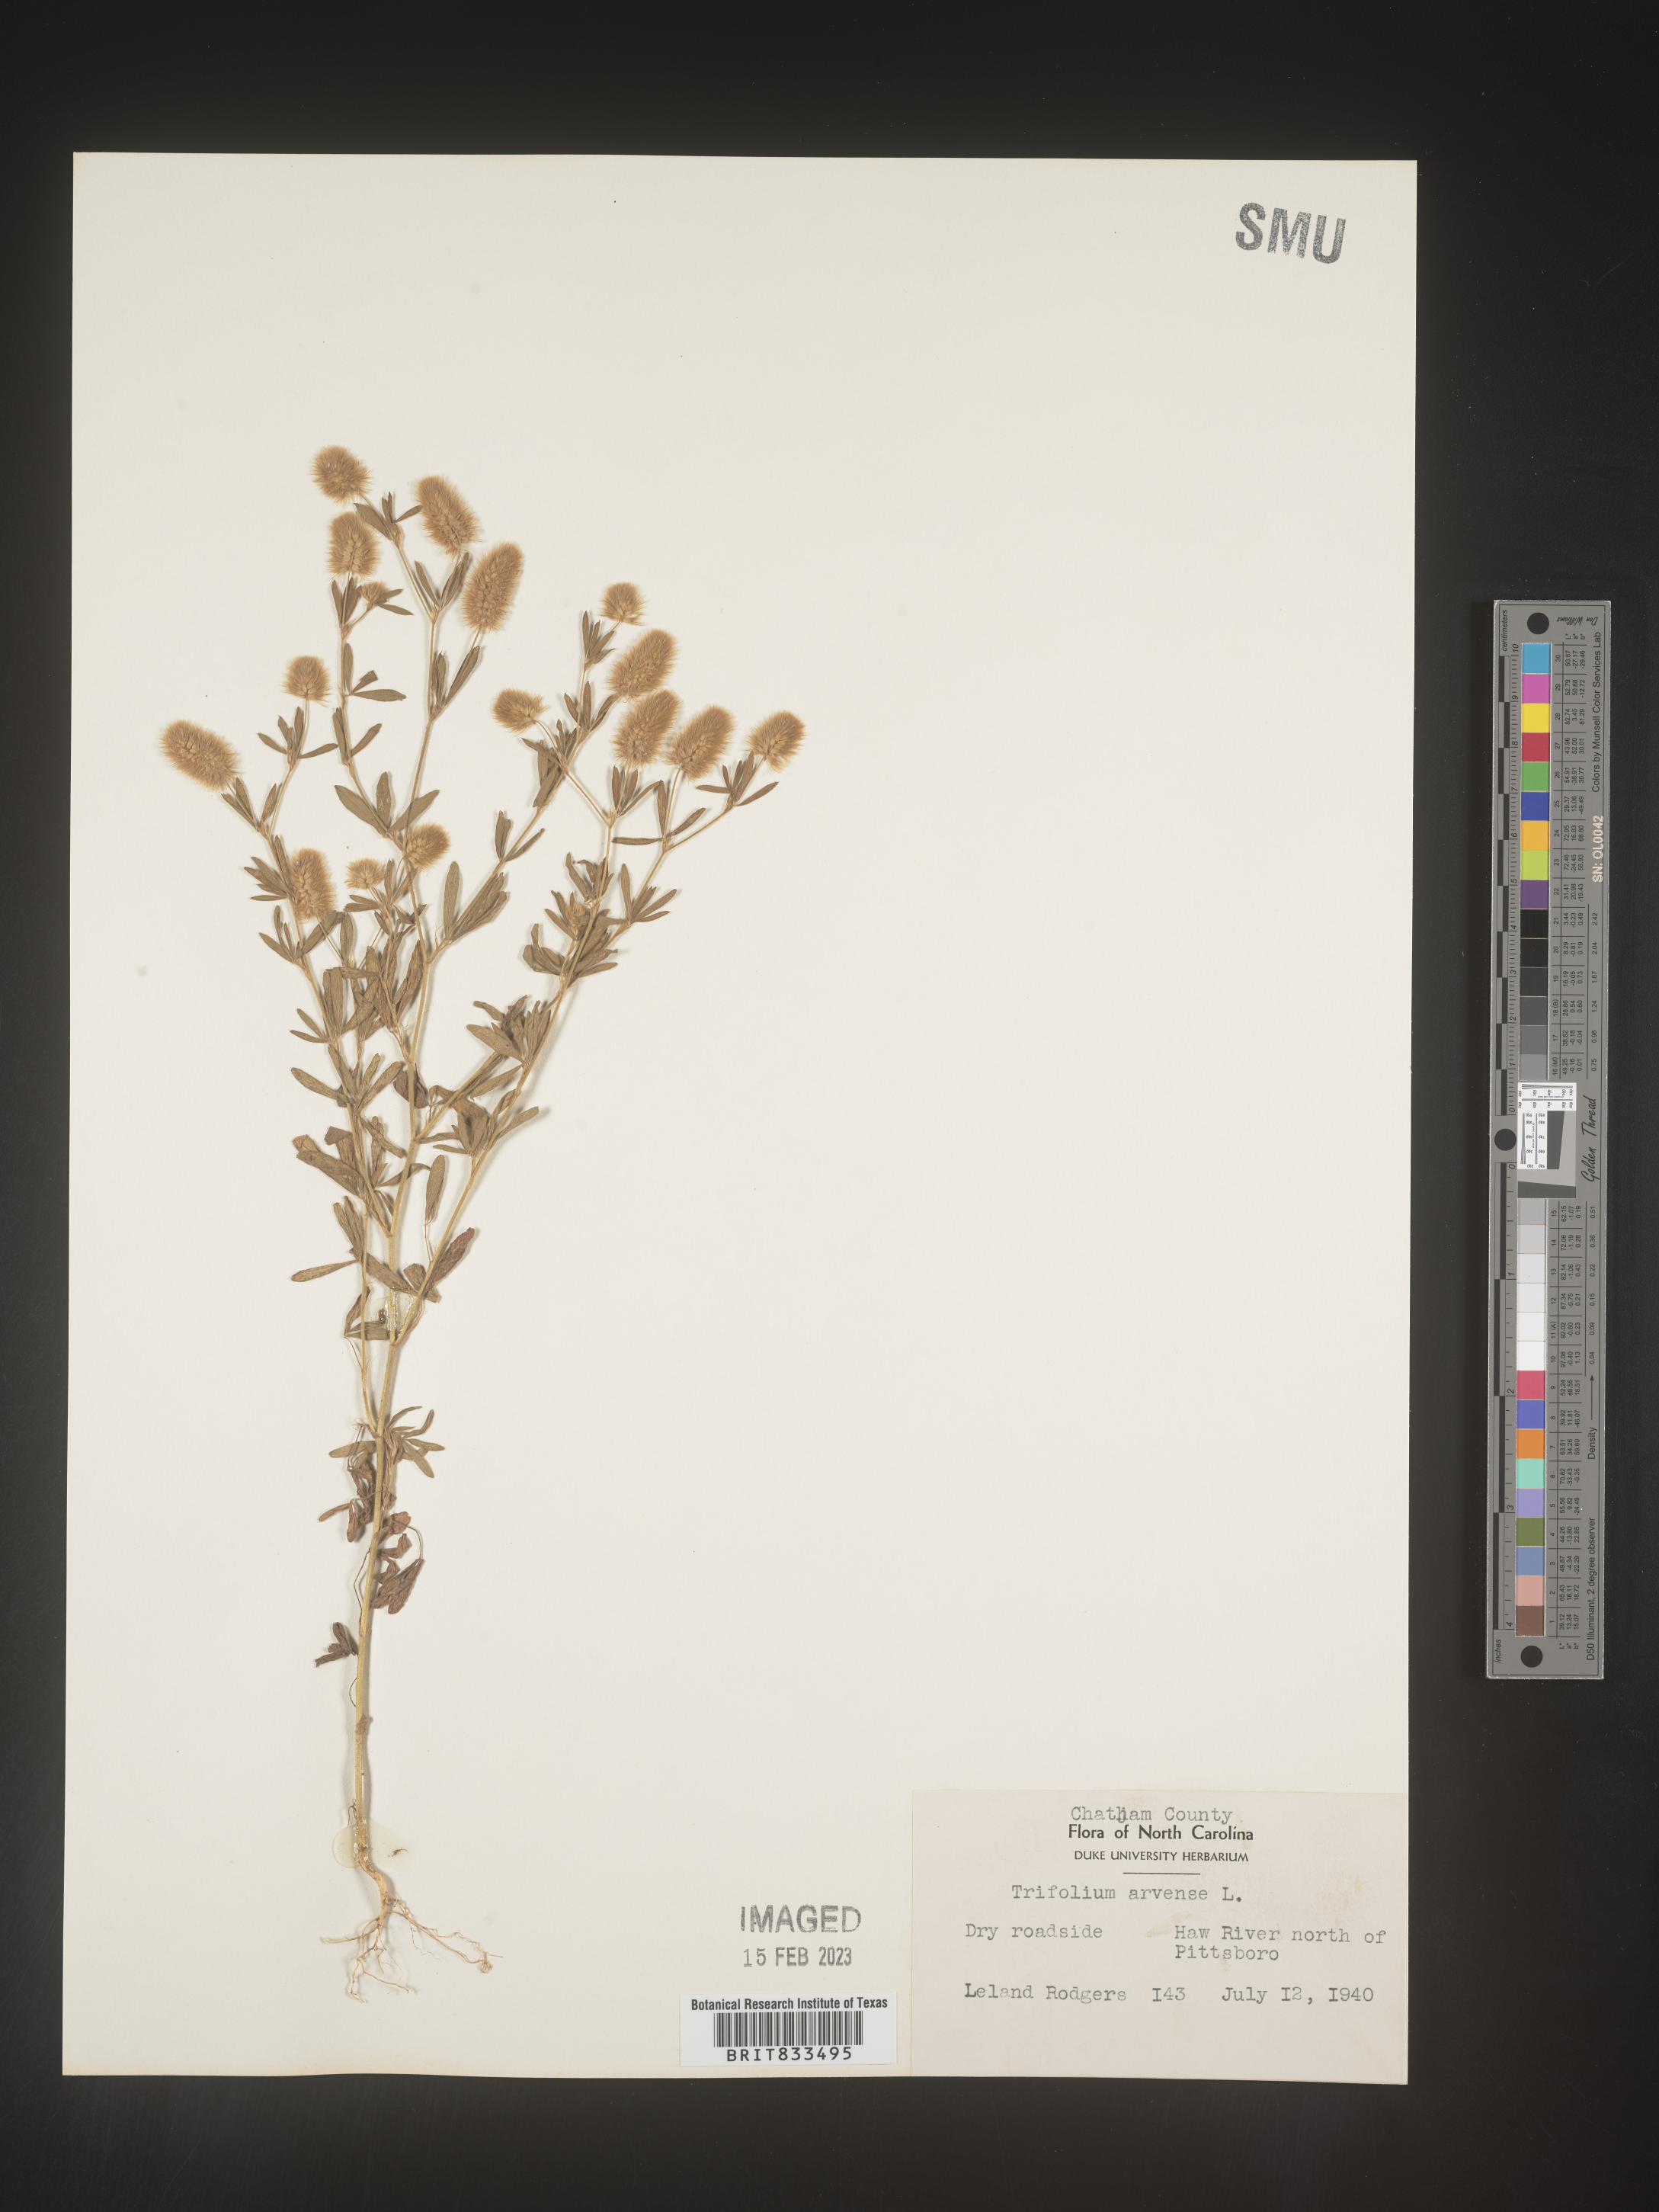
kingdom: Plantae
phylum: Tracheophyta
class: Magnoliopsida
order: Fabales
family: Fabaceae
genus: Trifolium
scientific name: Trifolium arvense
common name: Hare's-foot clover
